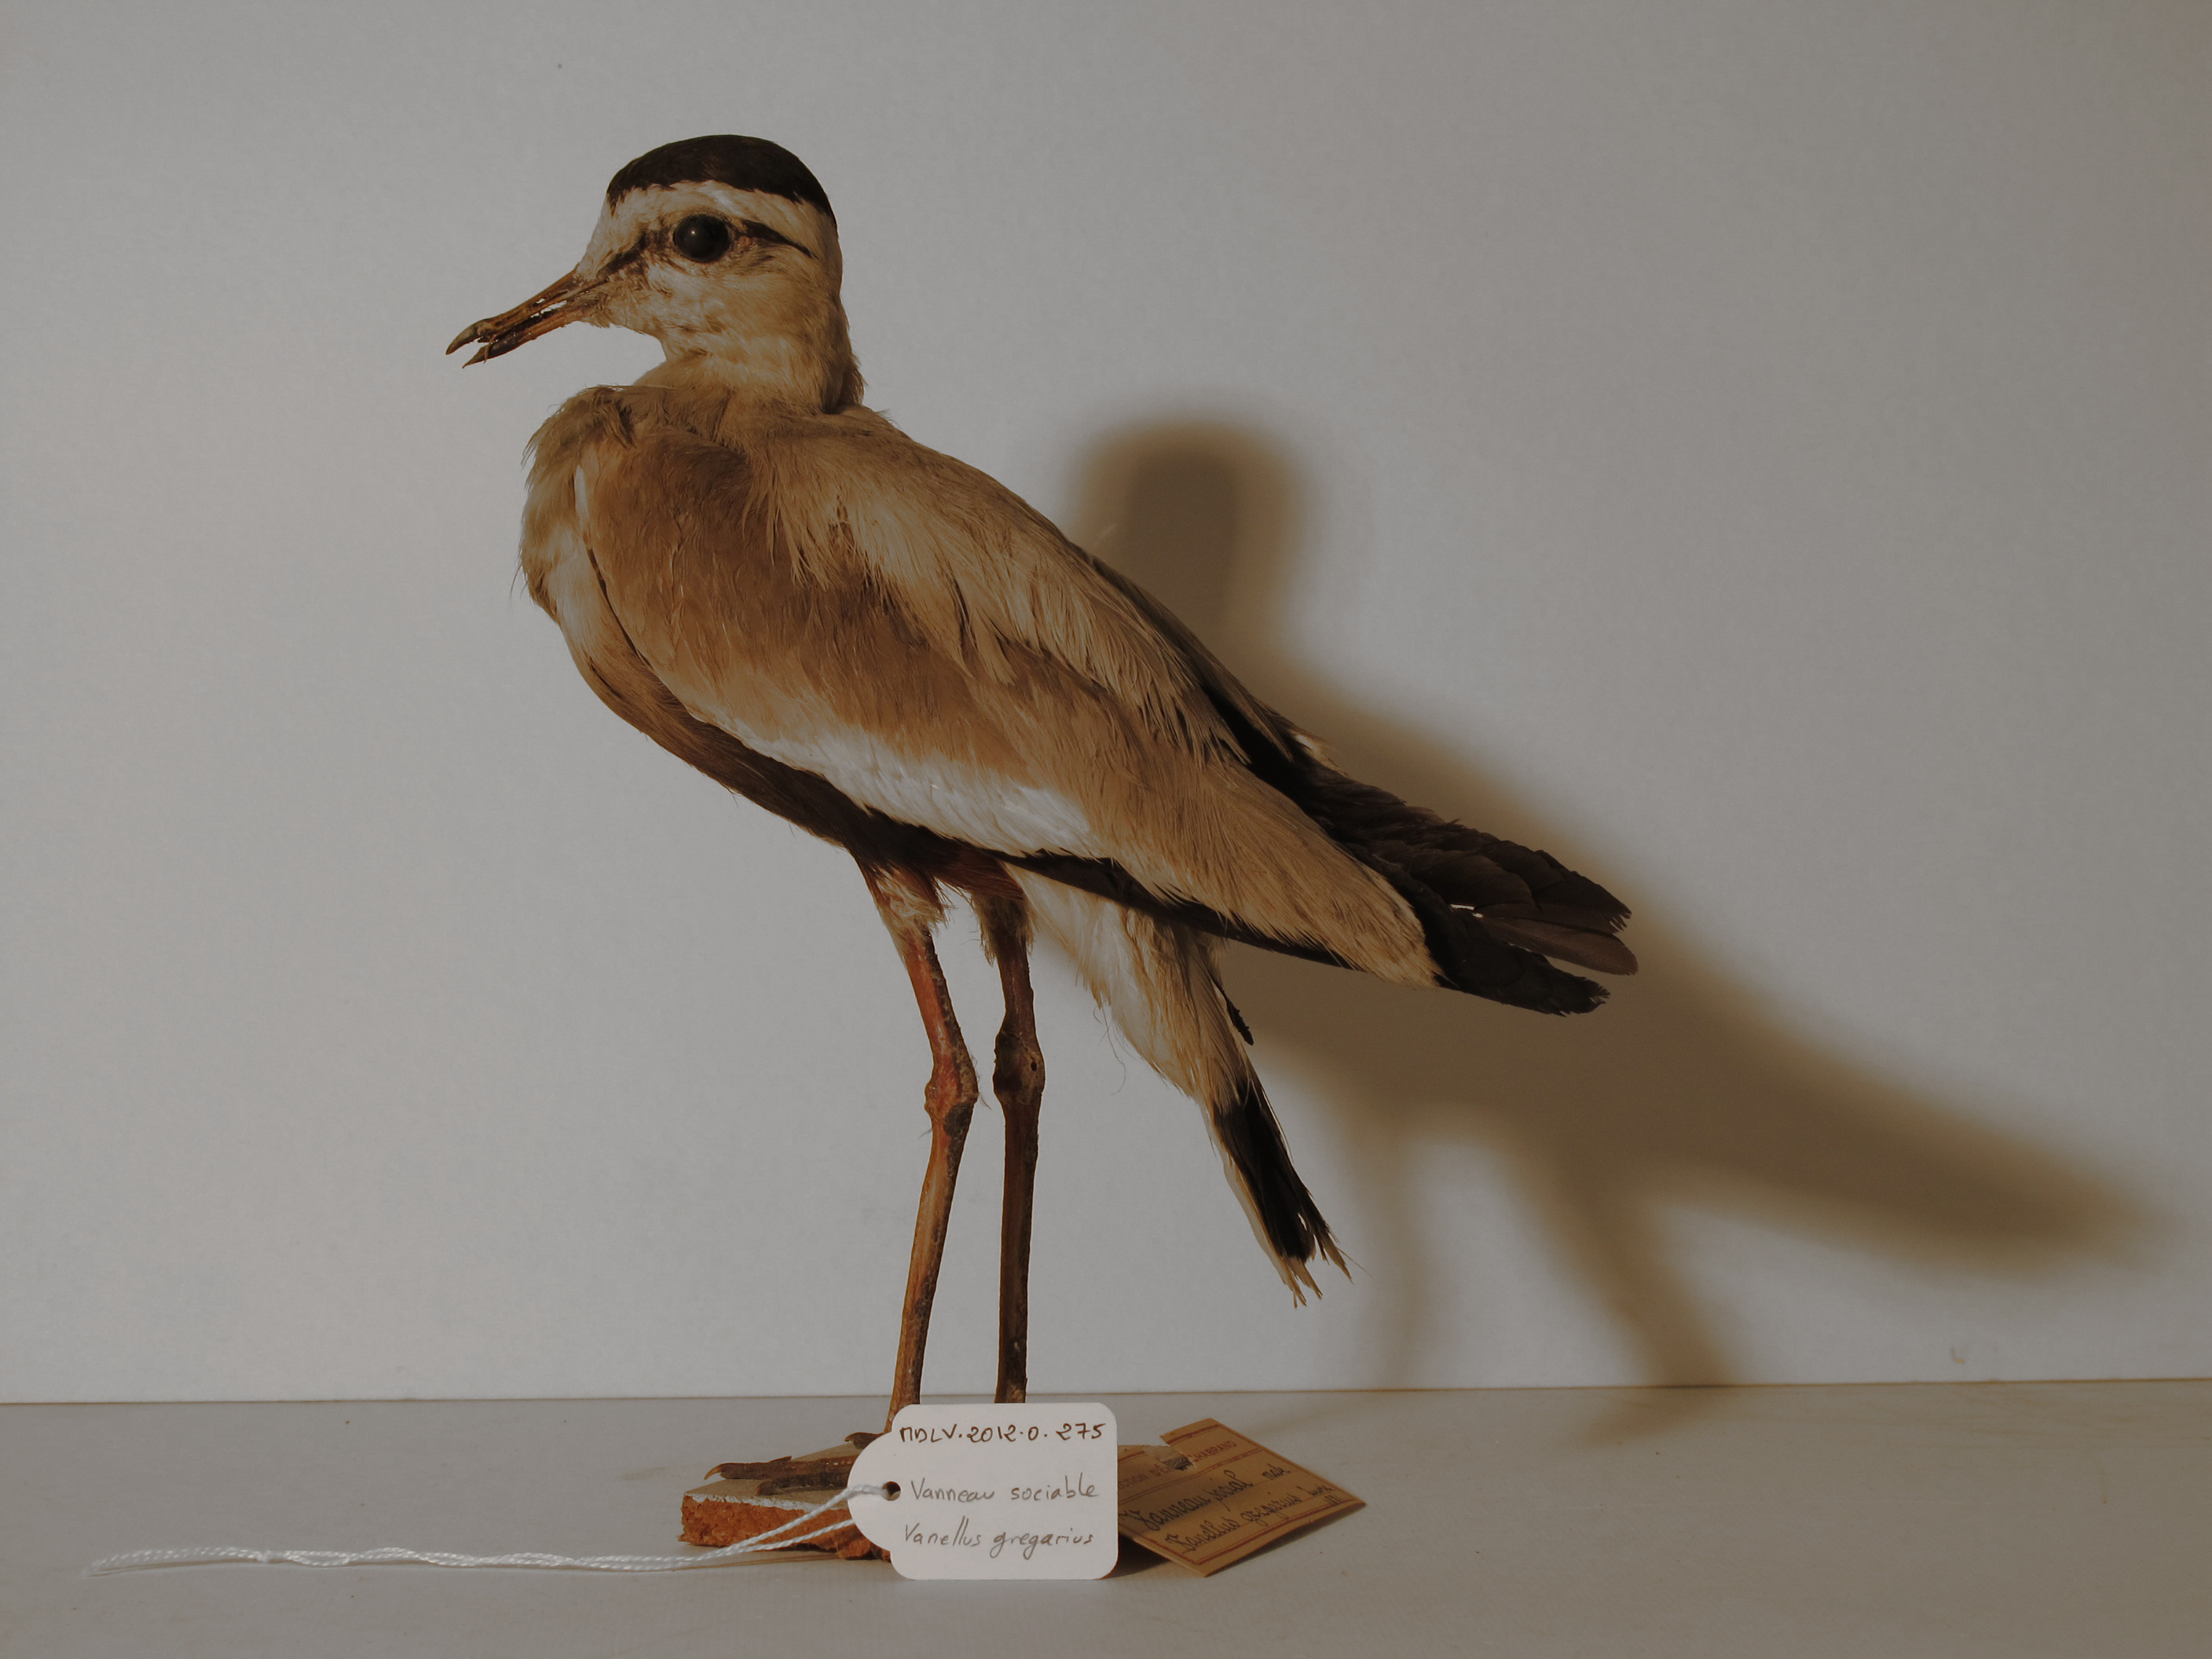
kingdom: Animalia
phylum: Chordata
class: Aves
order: Charadriiformes
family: Charadriidae
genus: Vanellus
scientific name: Vanellus gregarius
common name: Sociable Lapwing
